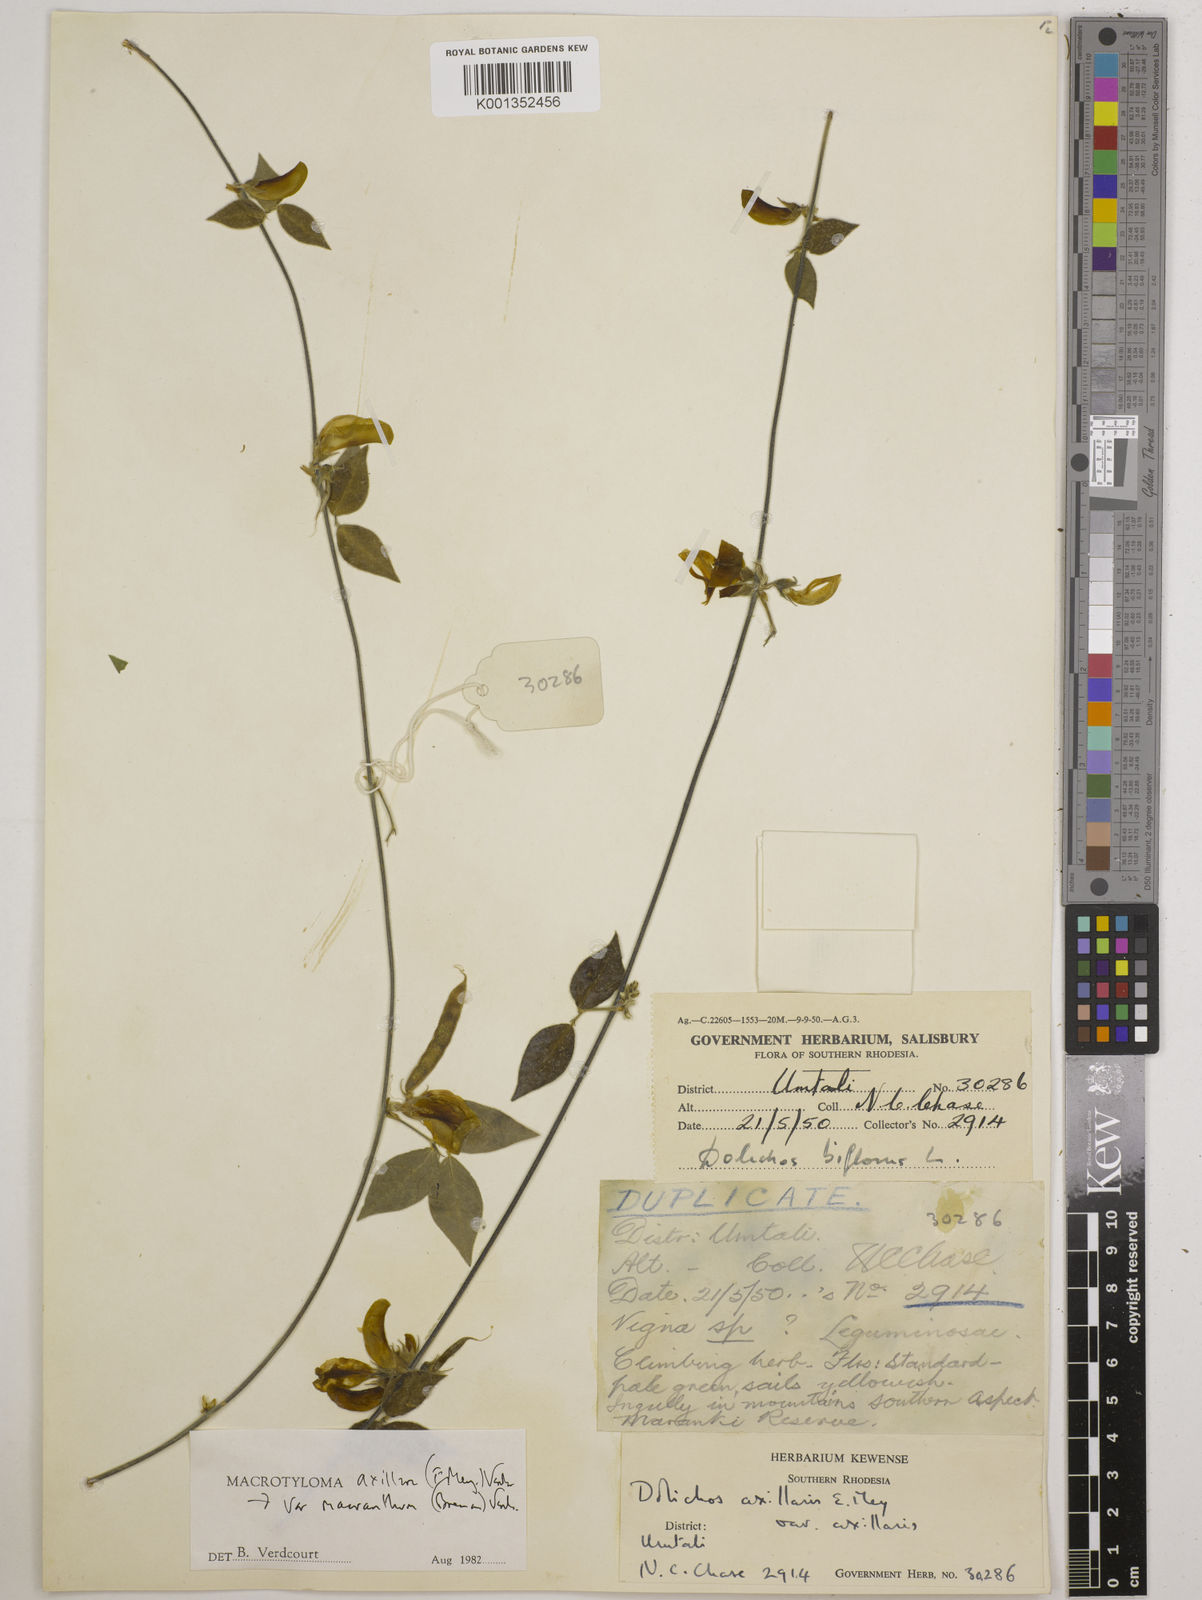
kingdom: Plantae
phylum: Tracheophyta
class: Magnoliopsida
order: Fabales
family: Fabaceae
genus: Macrotyloma
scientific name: Macrotyloma axillare
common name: Perennial horsegram
